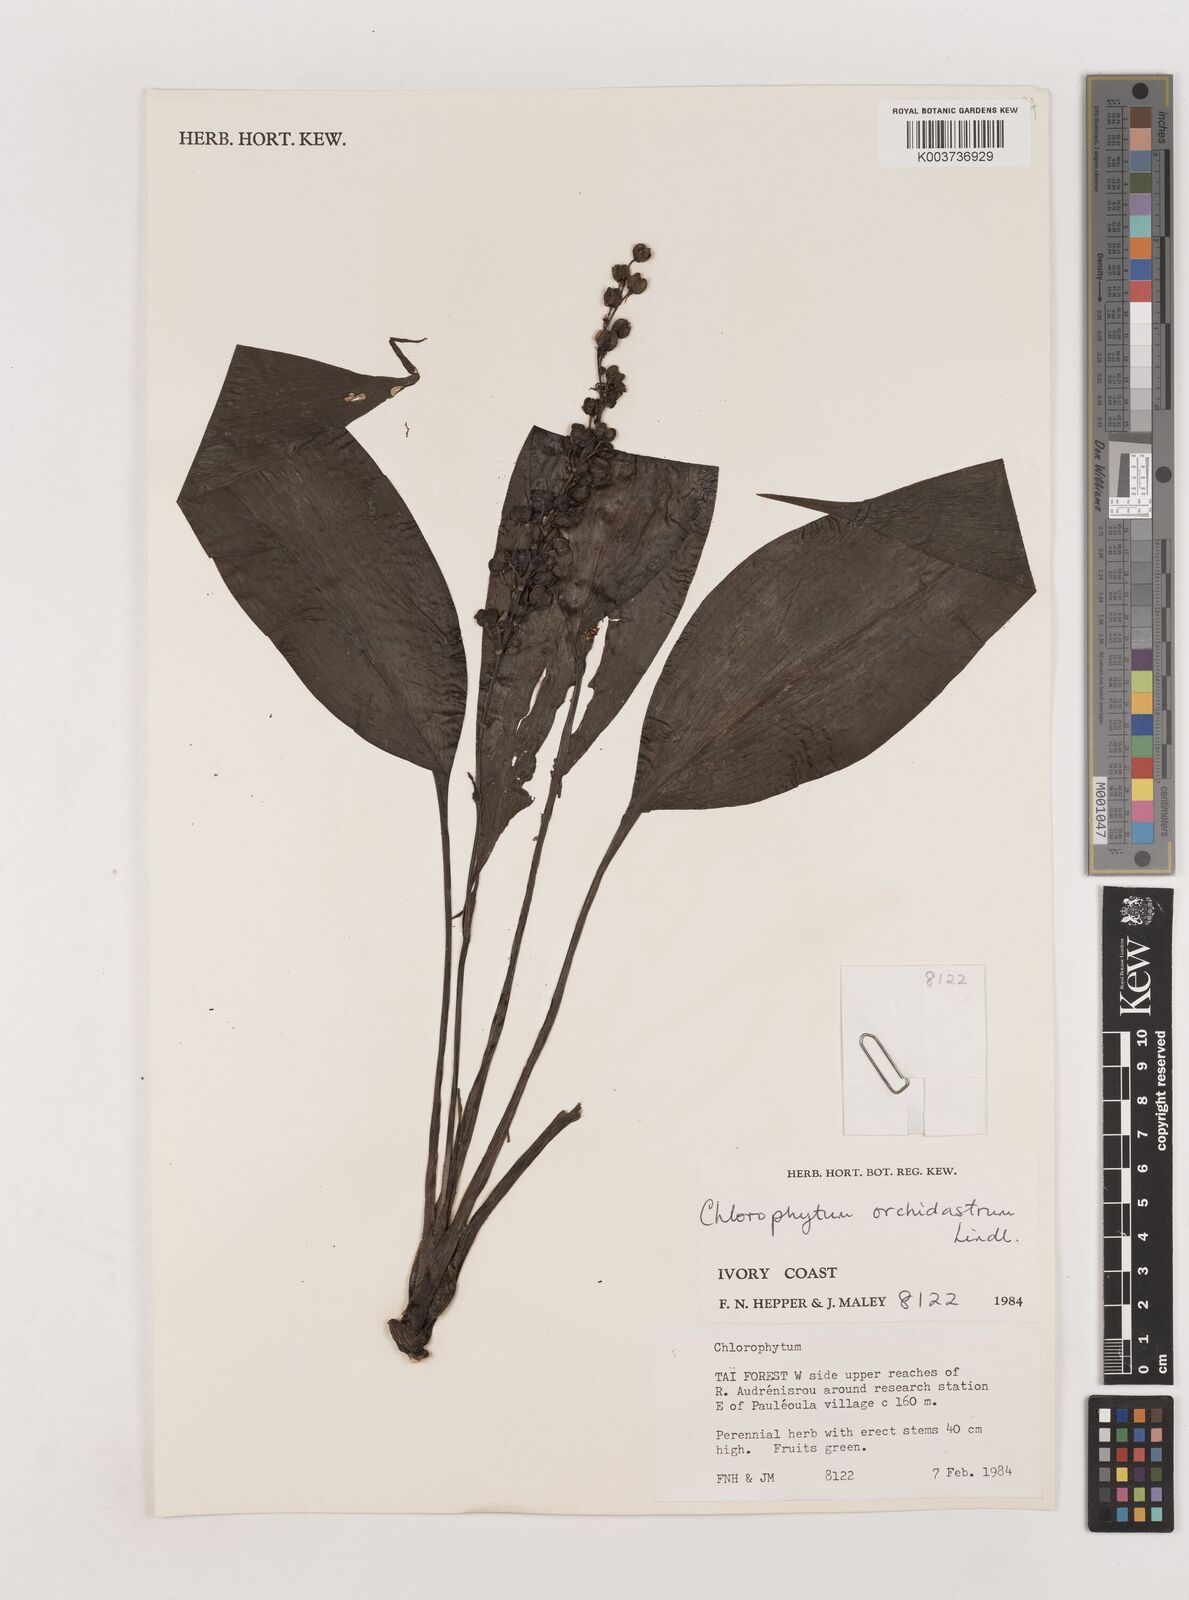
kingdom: Plantae
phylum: Tracheophyta
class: Liliopsida
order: Asparagales
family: Asparagaceae
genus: Chlorophytum
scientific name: Chlorophytum orchidastrum
